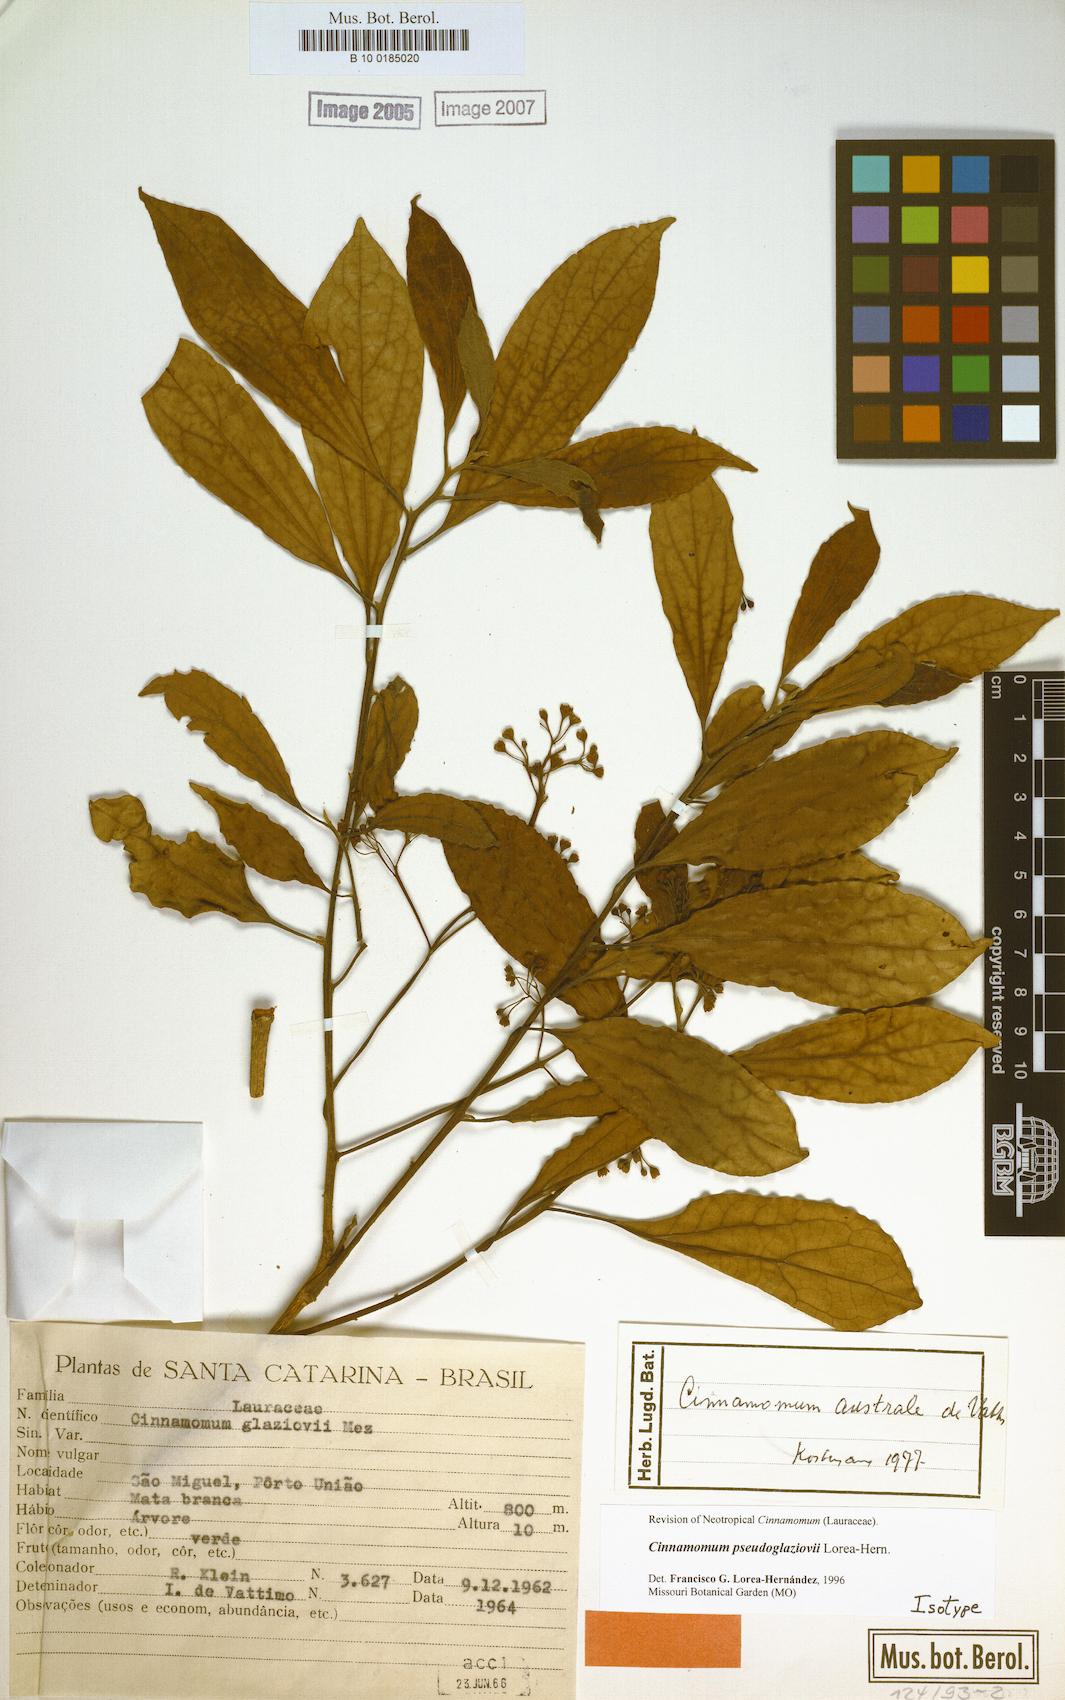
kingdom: Plantae
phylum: Tracheophyta
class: Magnoliopsida
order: Laurales
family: Lauraceae
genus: Aiouea
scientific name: Aiouea pseudoglaziovii
